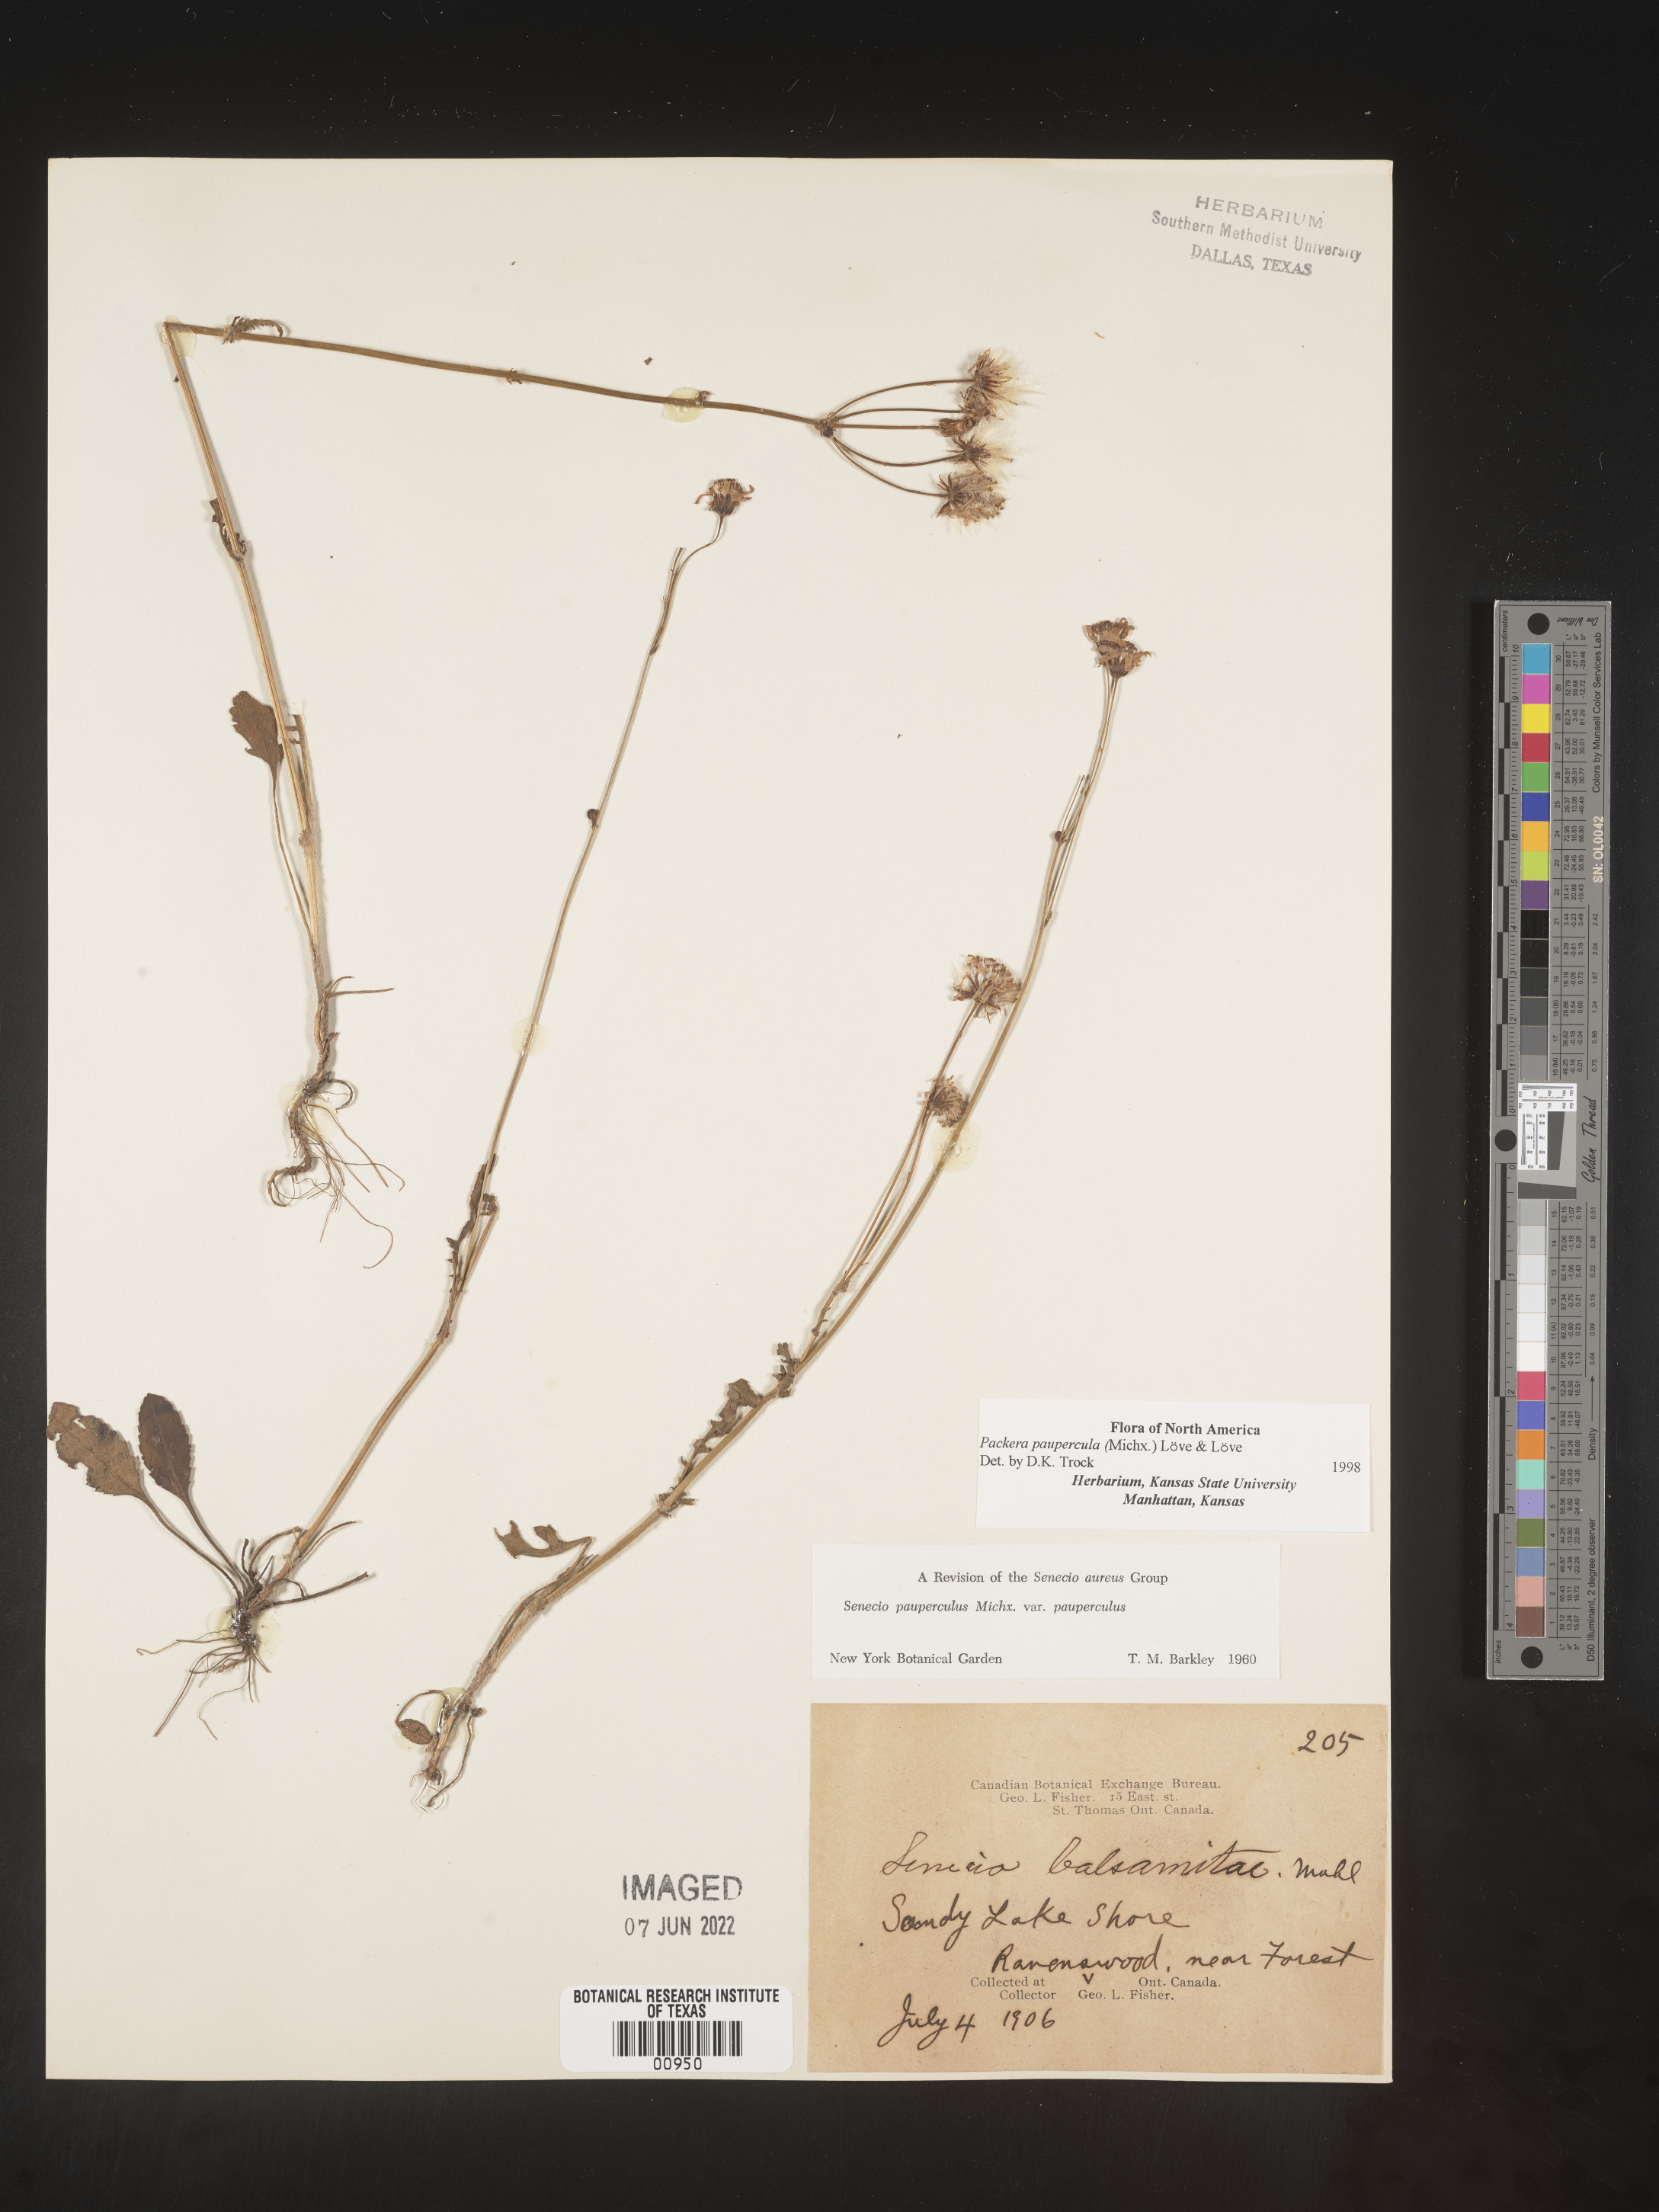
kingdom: Plantae
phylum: Tracheophyta
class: Magnoliopsida
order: Asterales
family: Asteraceae
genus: Packera
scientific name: Packera paupercula
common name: Balsam groundsel
